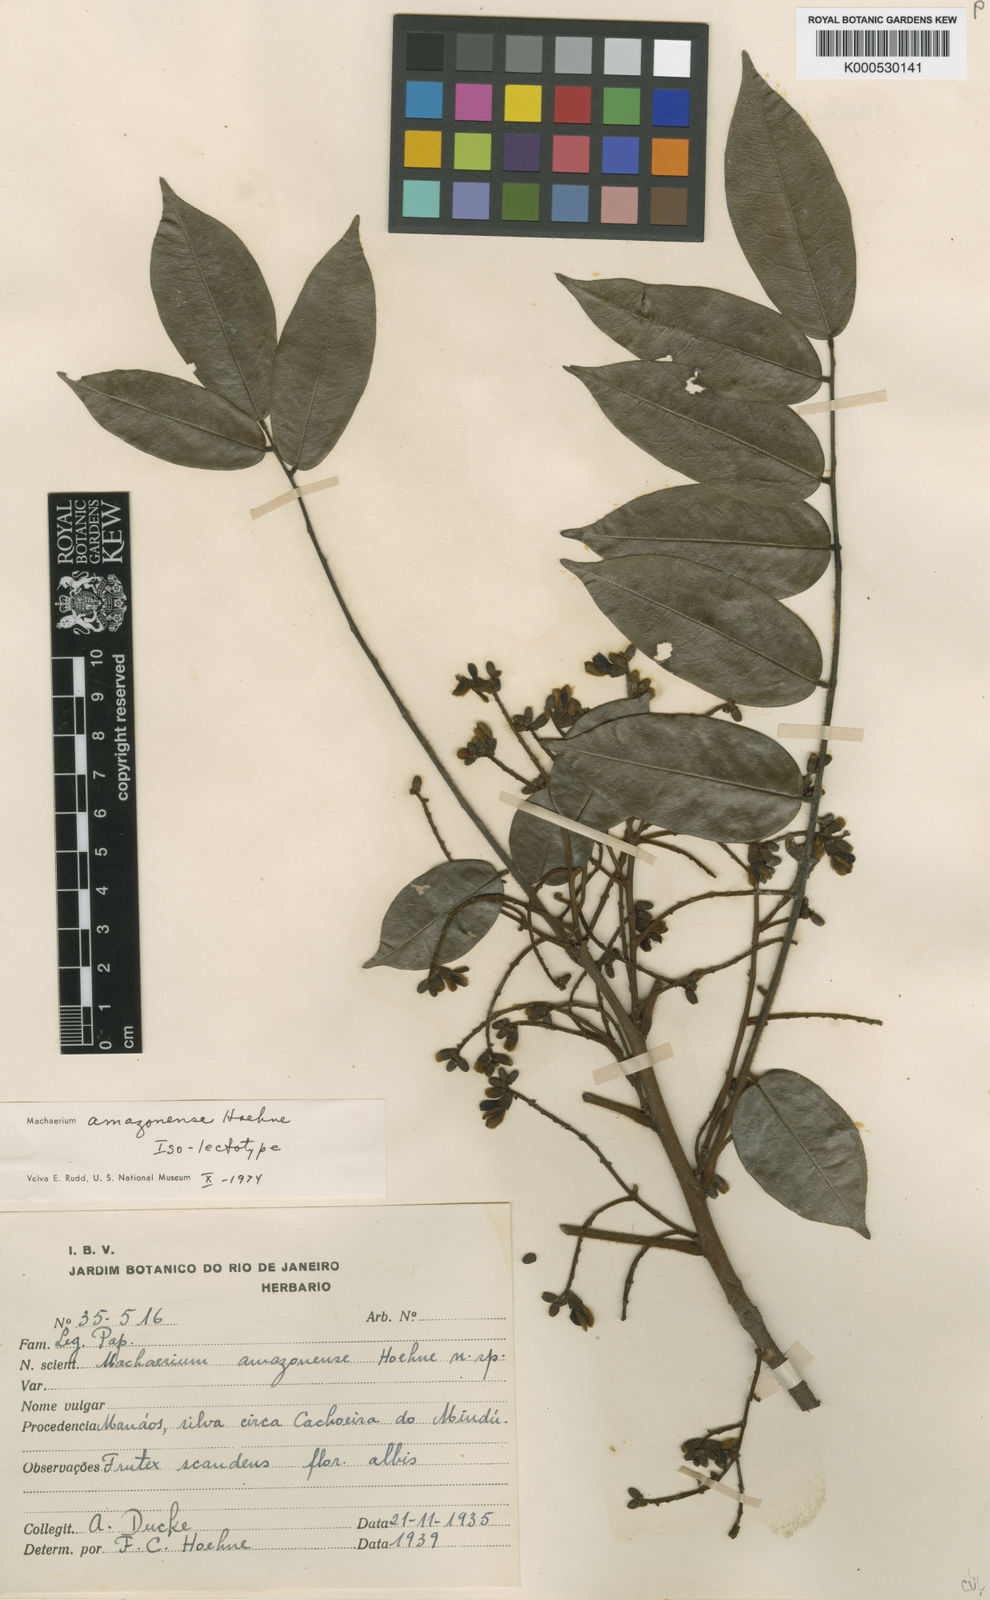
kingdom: Plantae
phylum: Tracheophyta
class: Magnoliopsida
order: Fabales
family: Fabaceae
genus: Machaerium
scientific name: Machaerium amazonense
